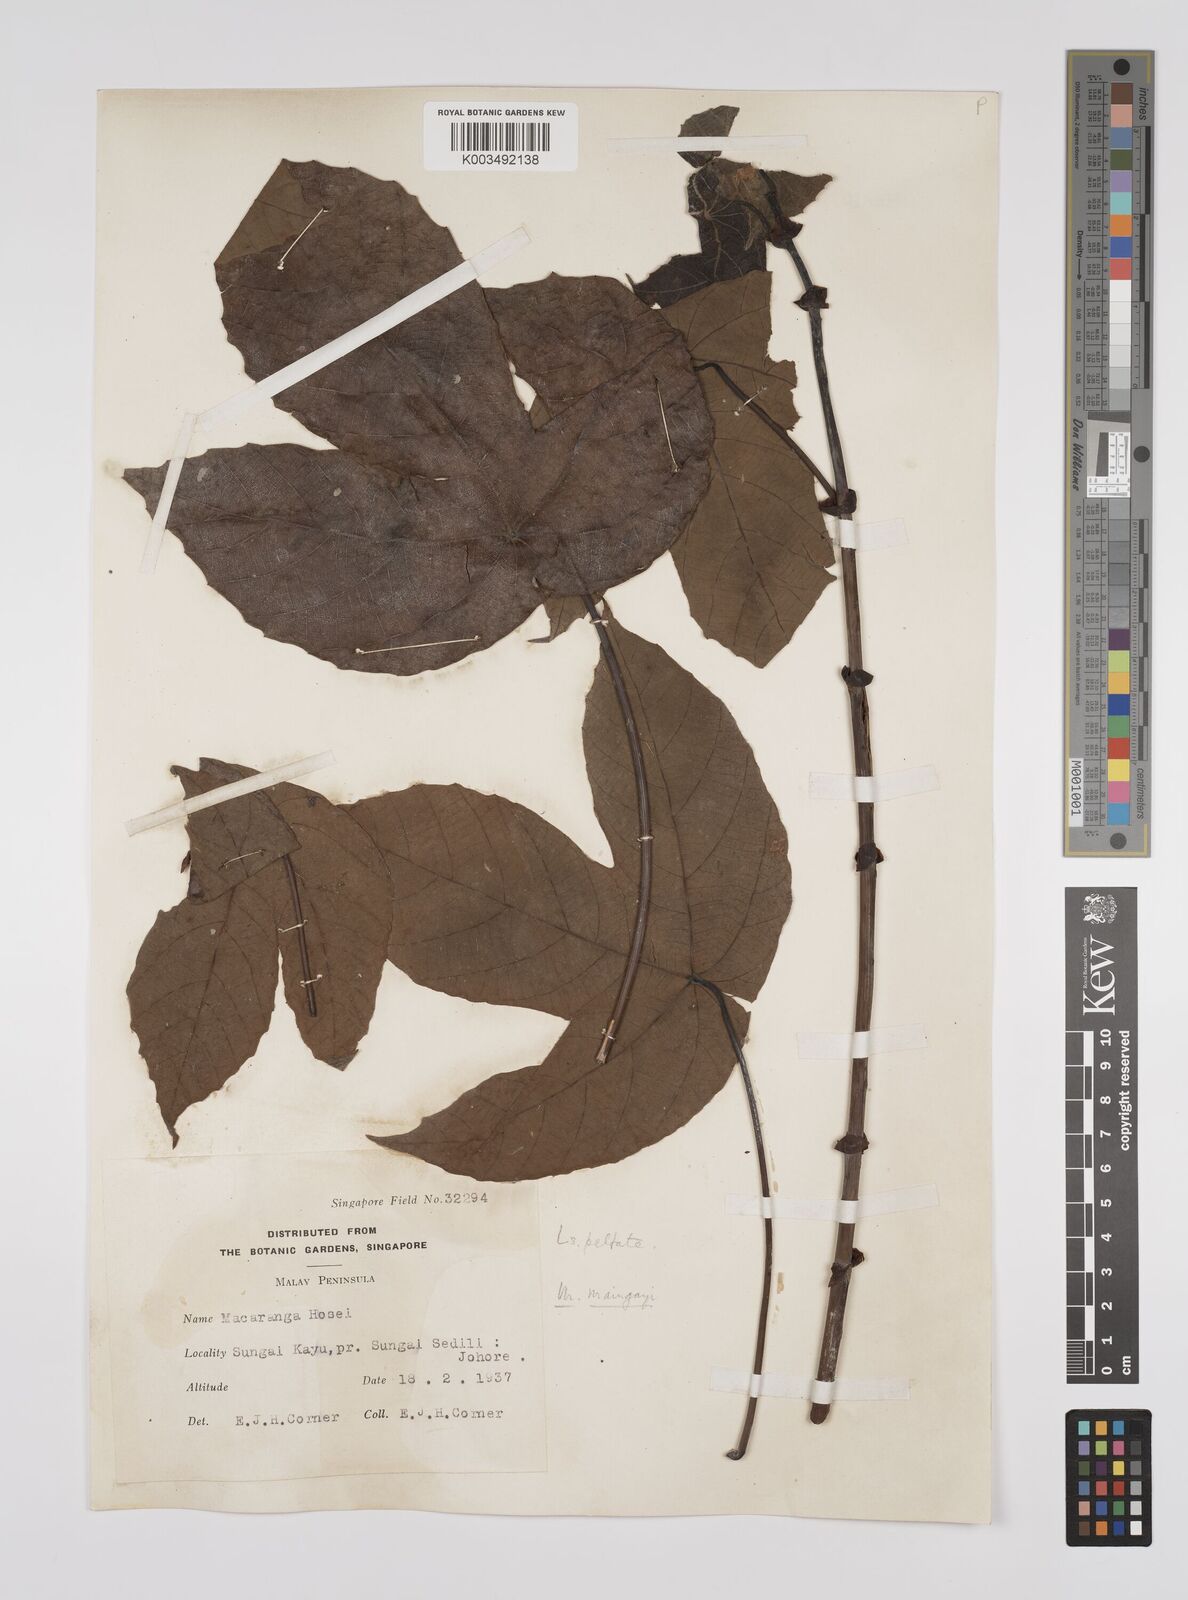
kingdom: Plantae
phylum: Tracheophyta
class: Magnoliopsida
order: Malpighiales
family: Euphorbiaceae
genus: Macaranga
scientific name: Macaranga pruinosa
